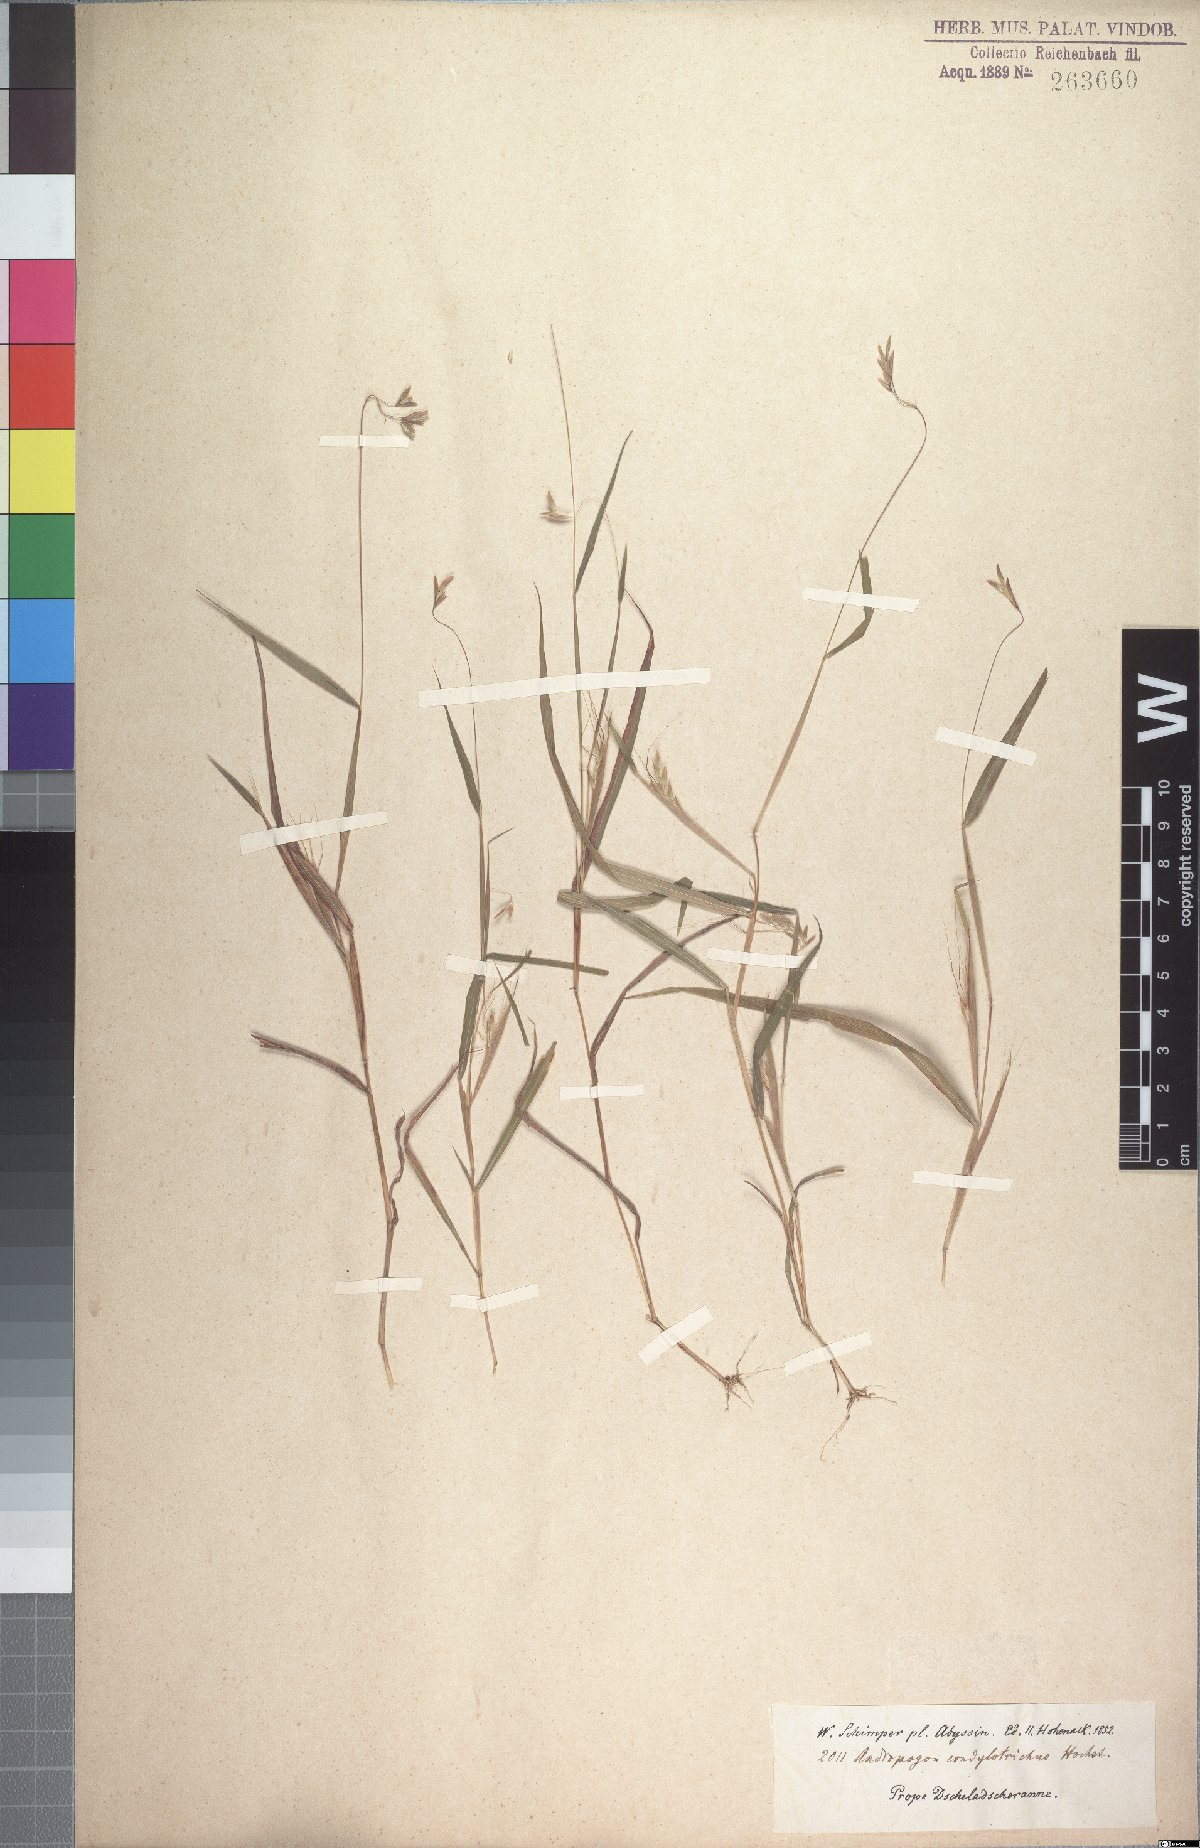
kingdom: Plantae
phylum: Tracheophyta
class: Liliopsida
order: Poales
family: Poaceae
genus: Euclasta
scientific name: Euclasta condylotricha
